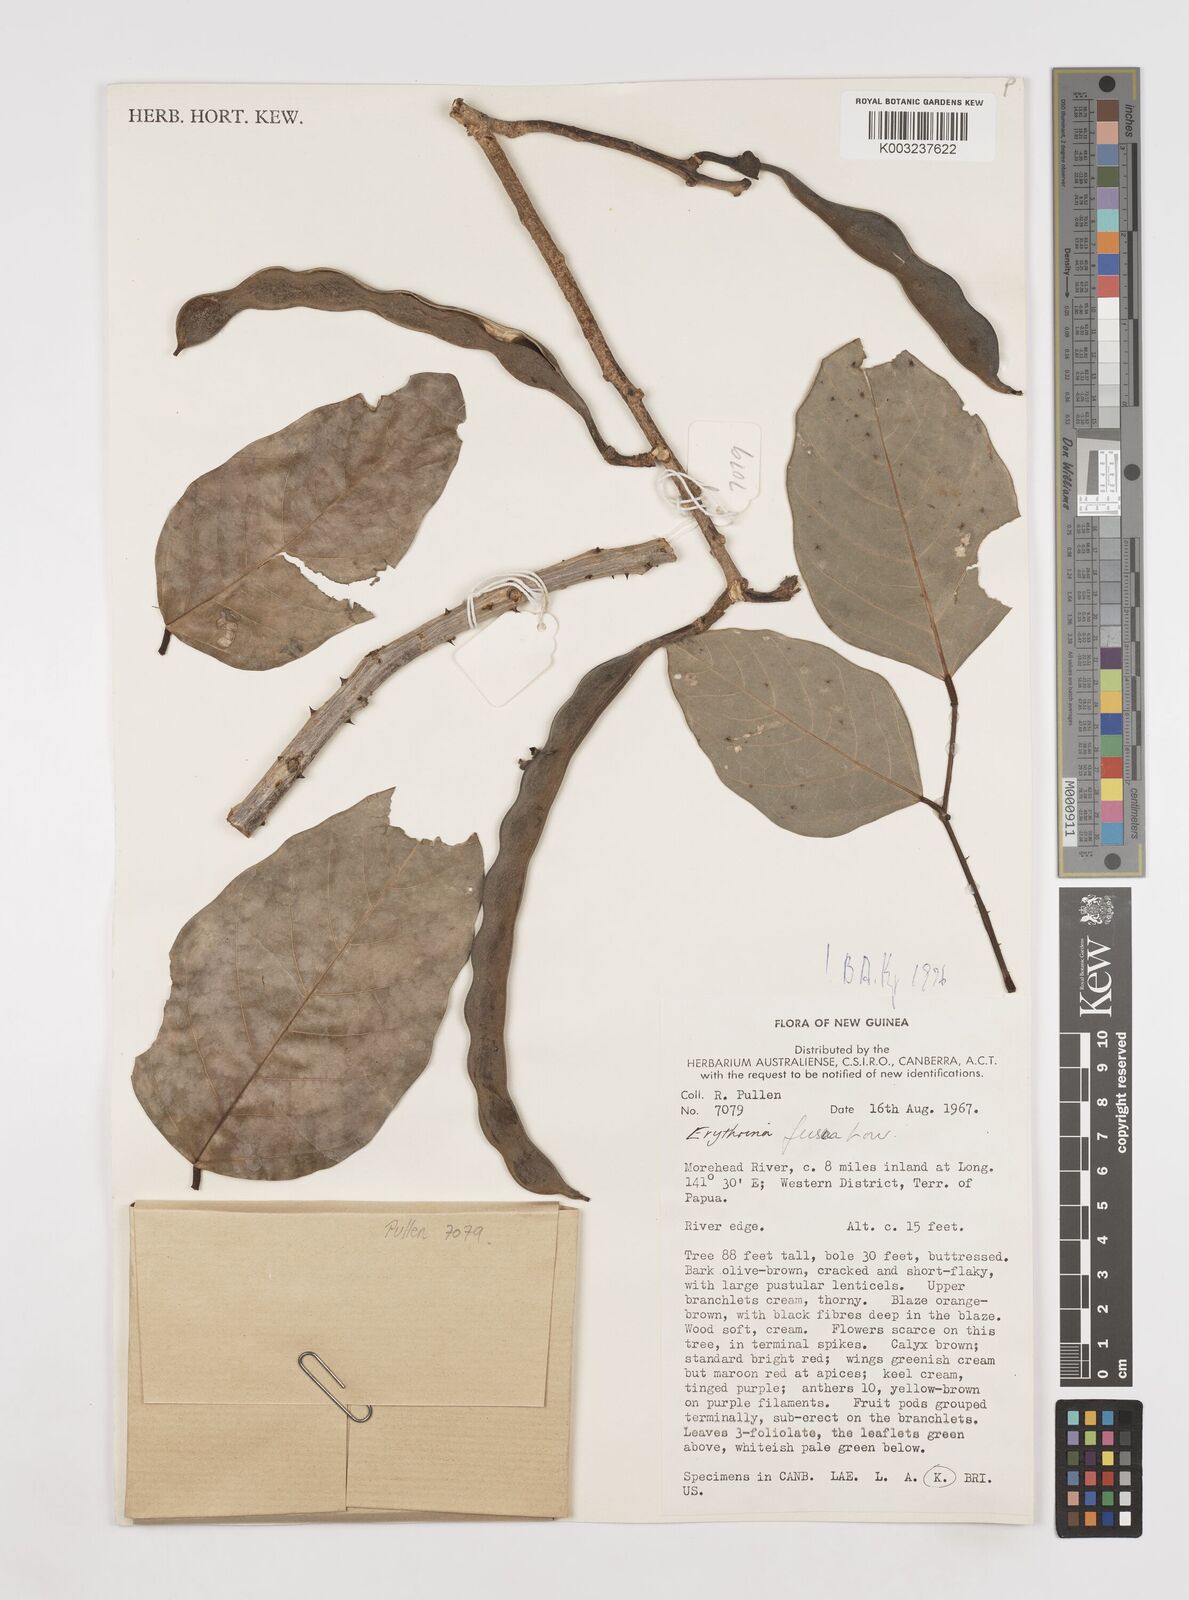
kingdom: Plantae
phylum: Tracheophyta
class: Magnoliopsida
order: Fabales
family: Fabaceae
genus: Erythrina
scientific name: Erythrina fusca
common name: Coral-bean
